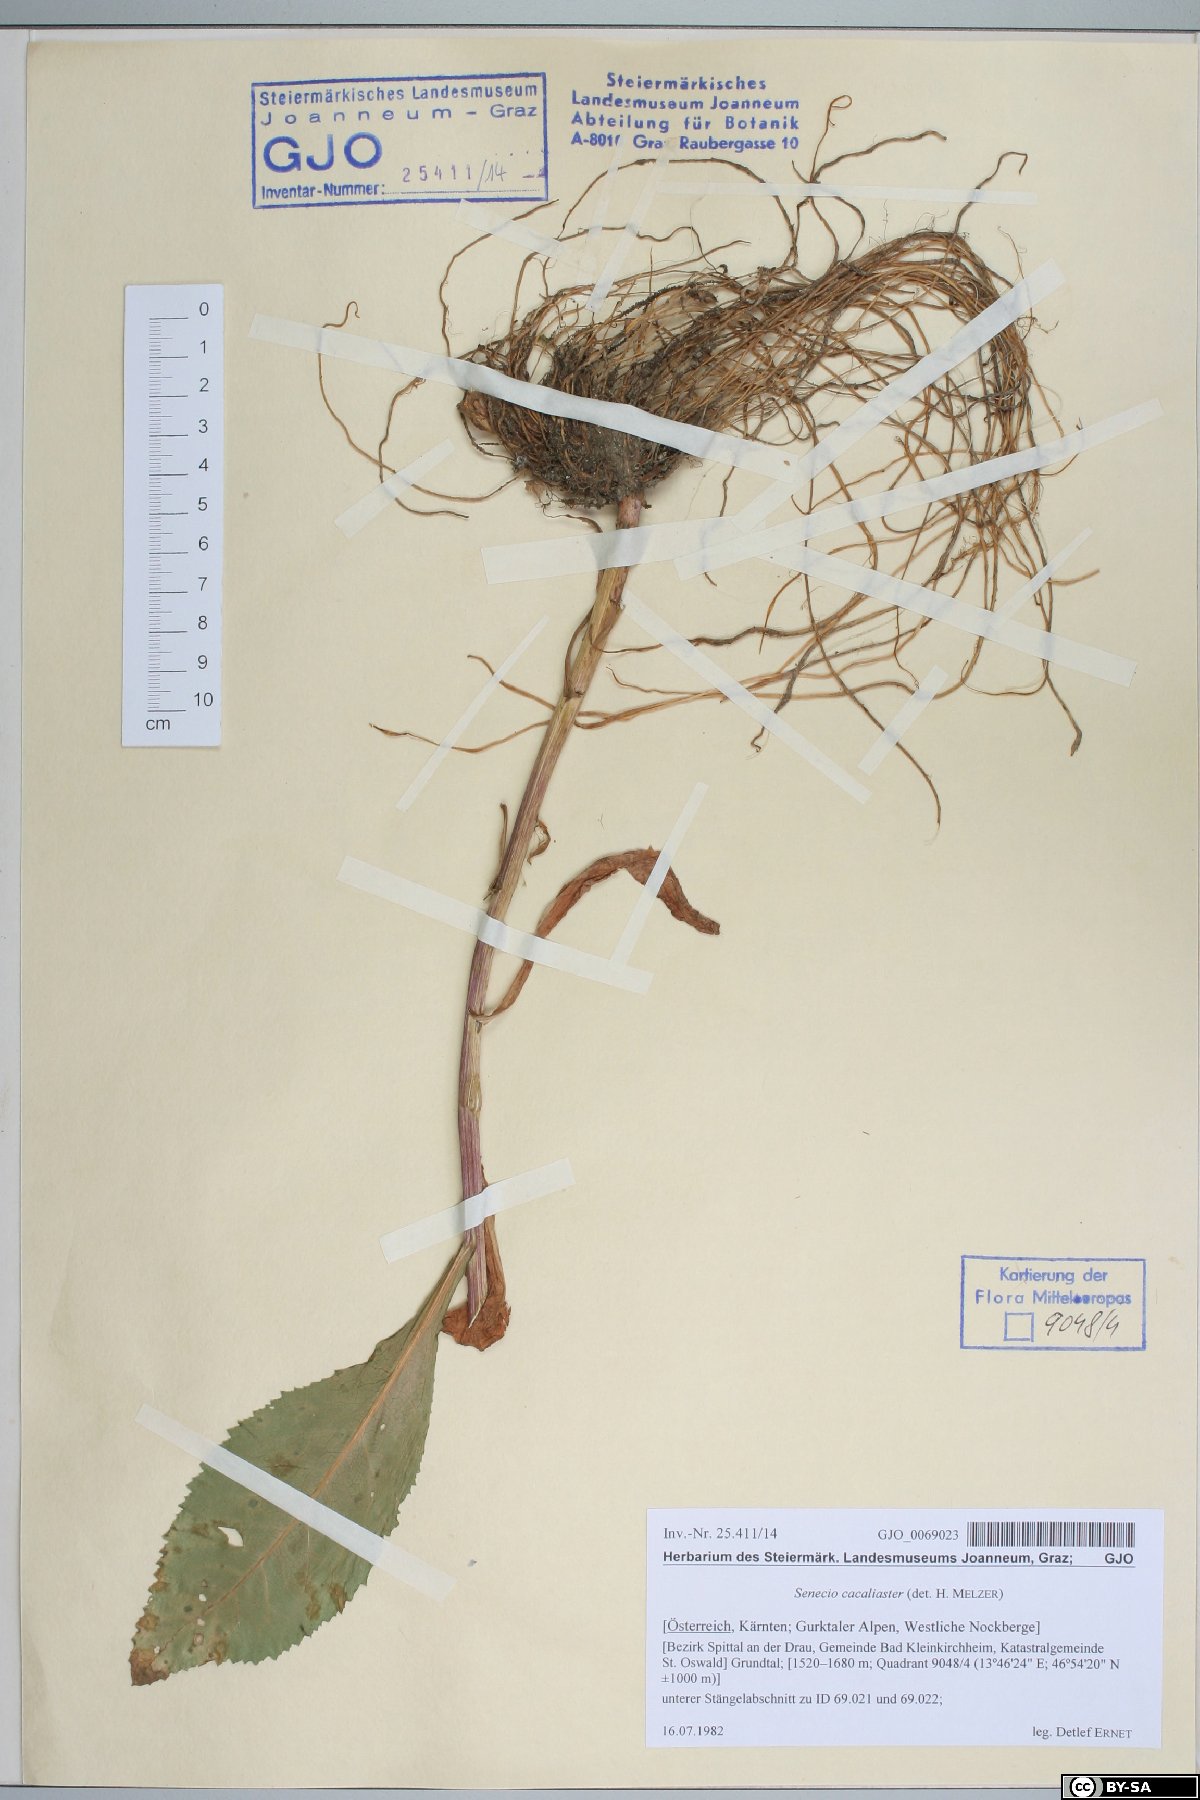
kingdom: Plantae
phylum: Tracheophyta
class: Magnoliopsida
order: Asterales
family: Asteraceae
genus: Senecio
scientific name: Senecio cacaliaster
